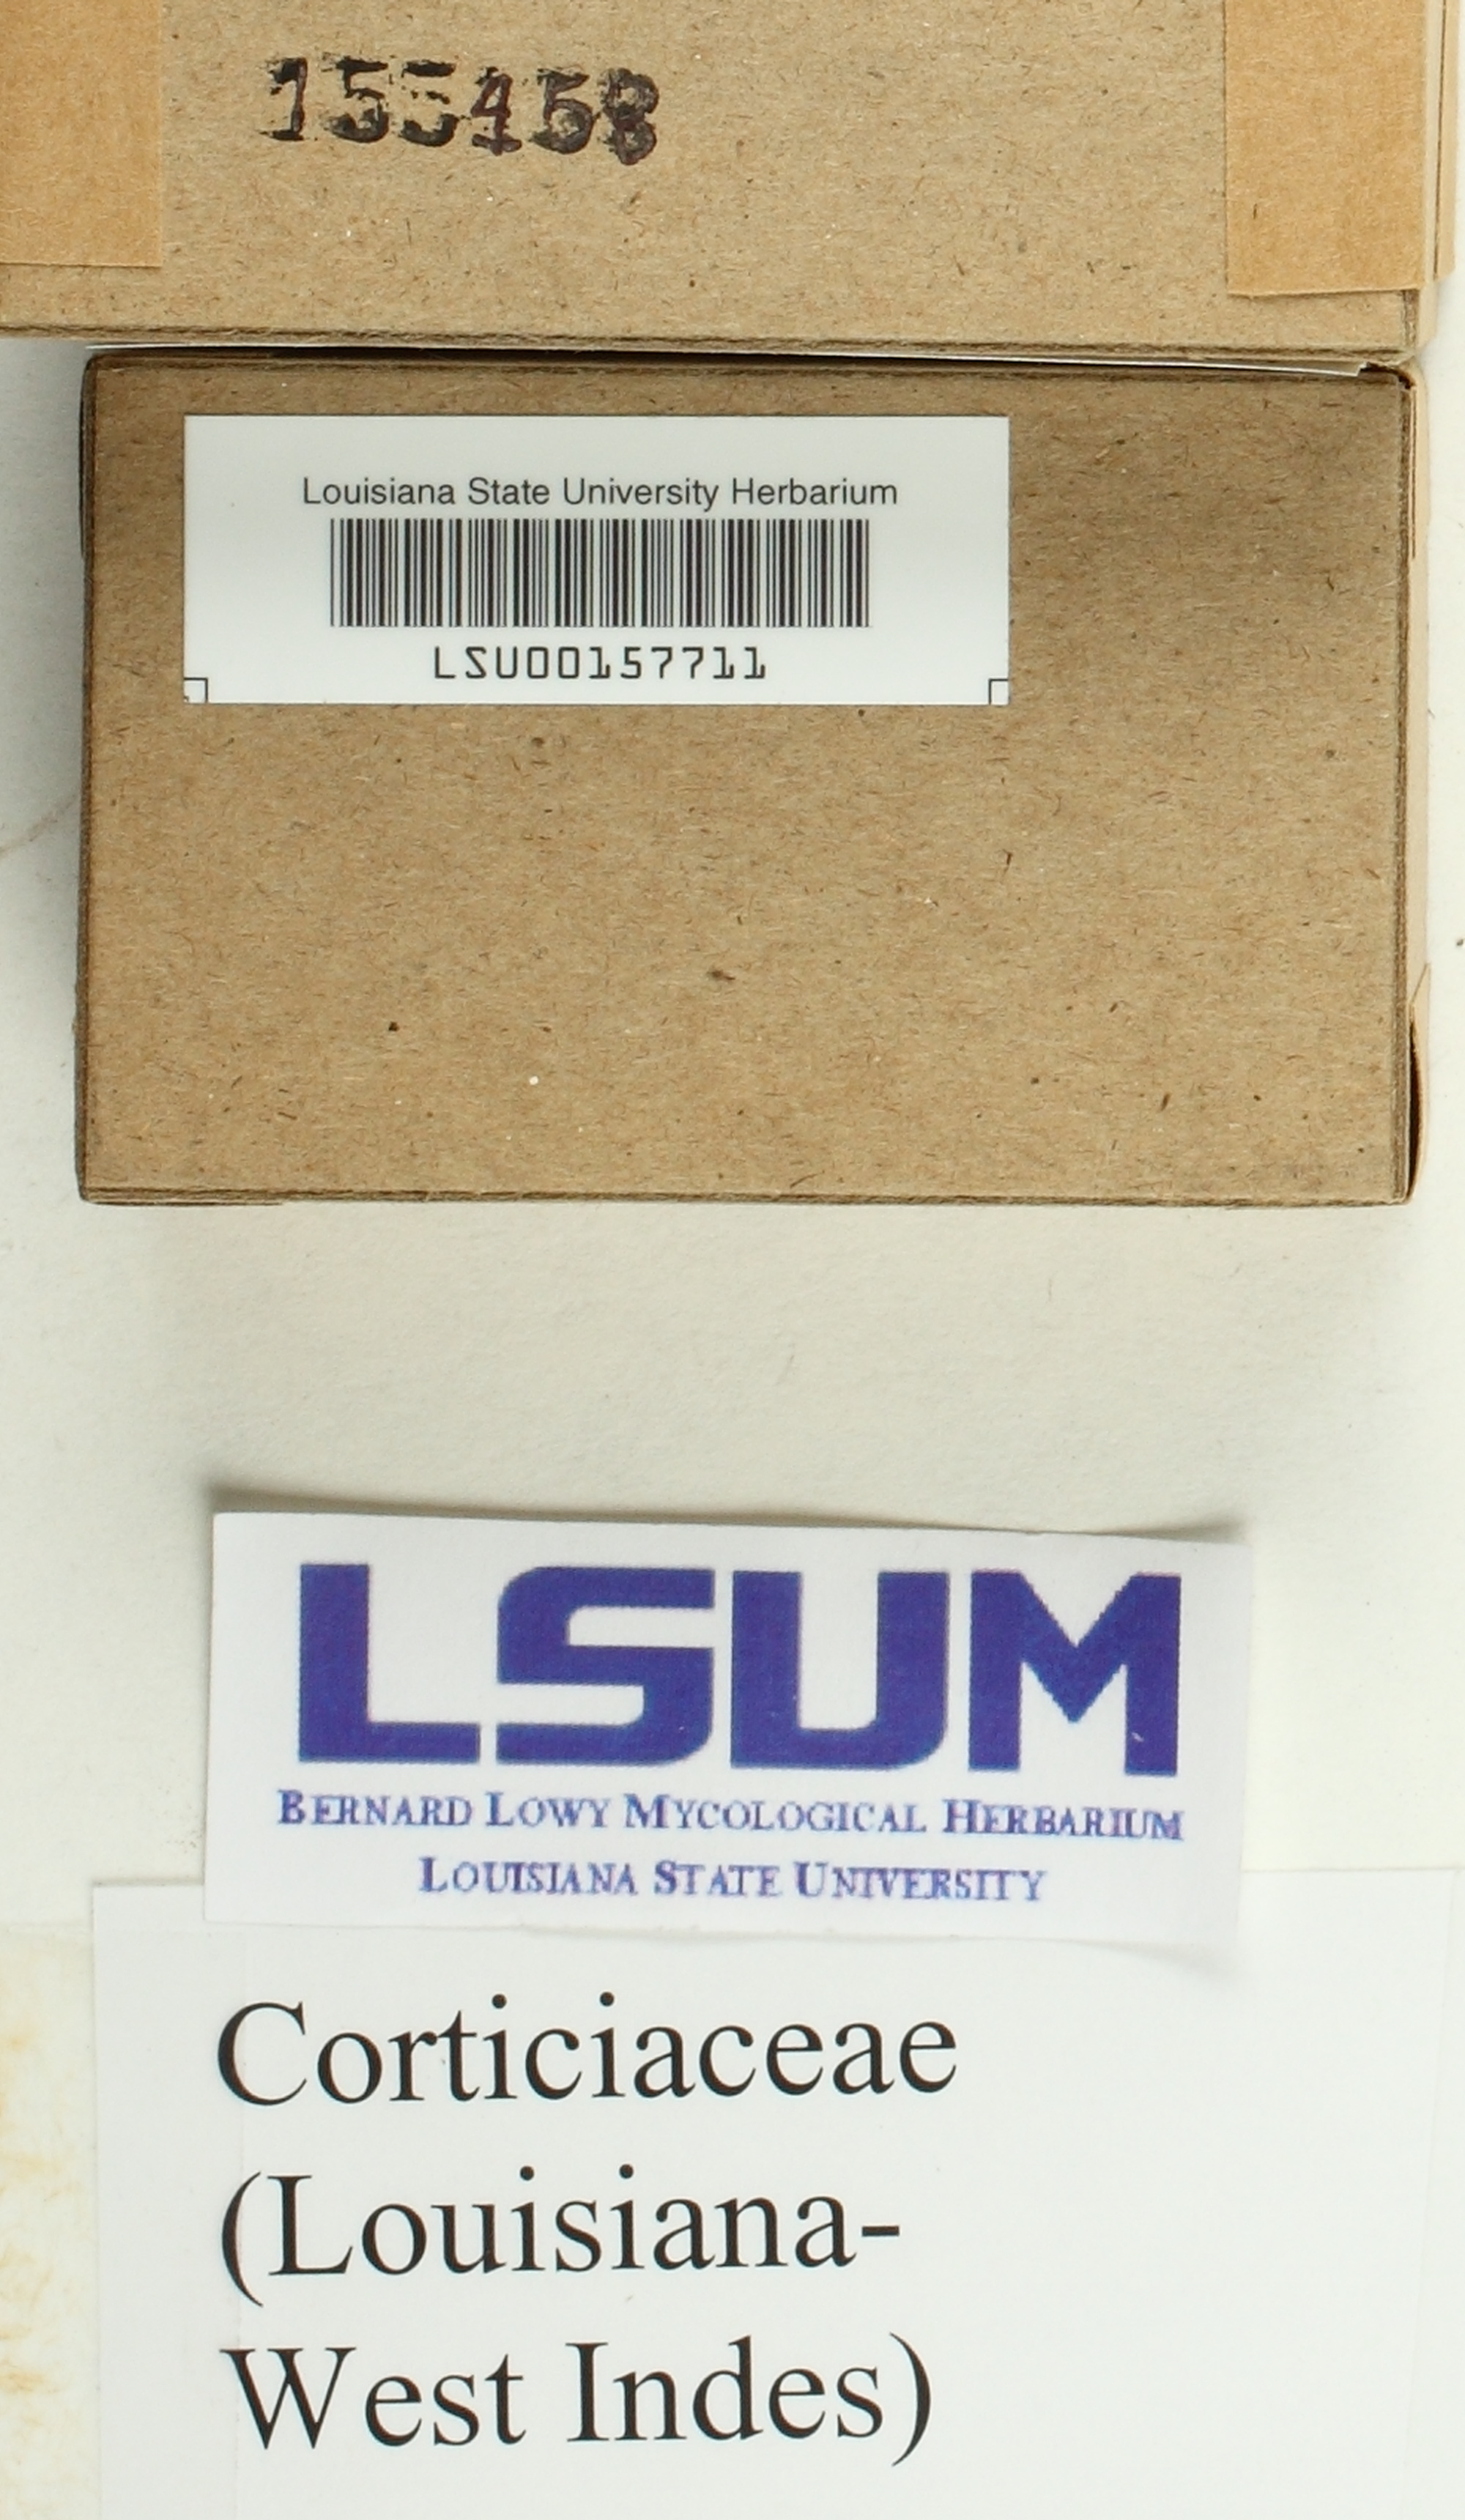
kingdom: Fungi
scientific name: Fungi
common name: Fungi
